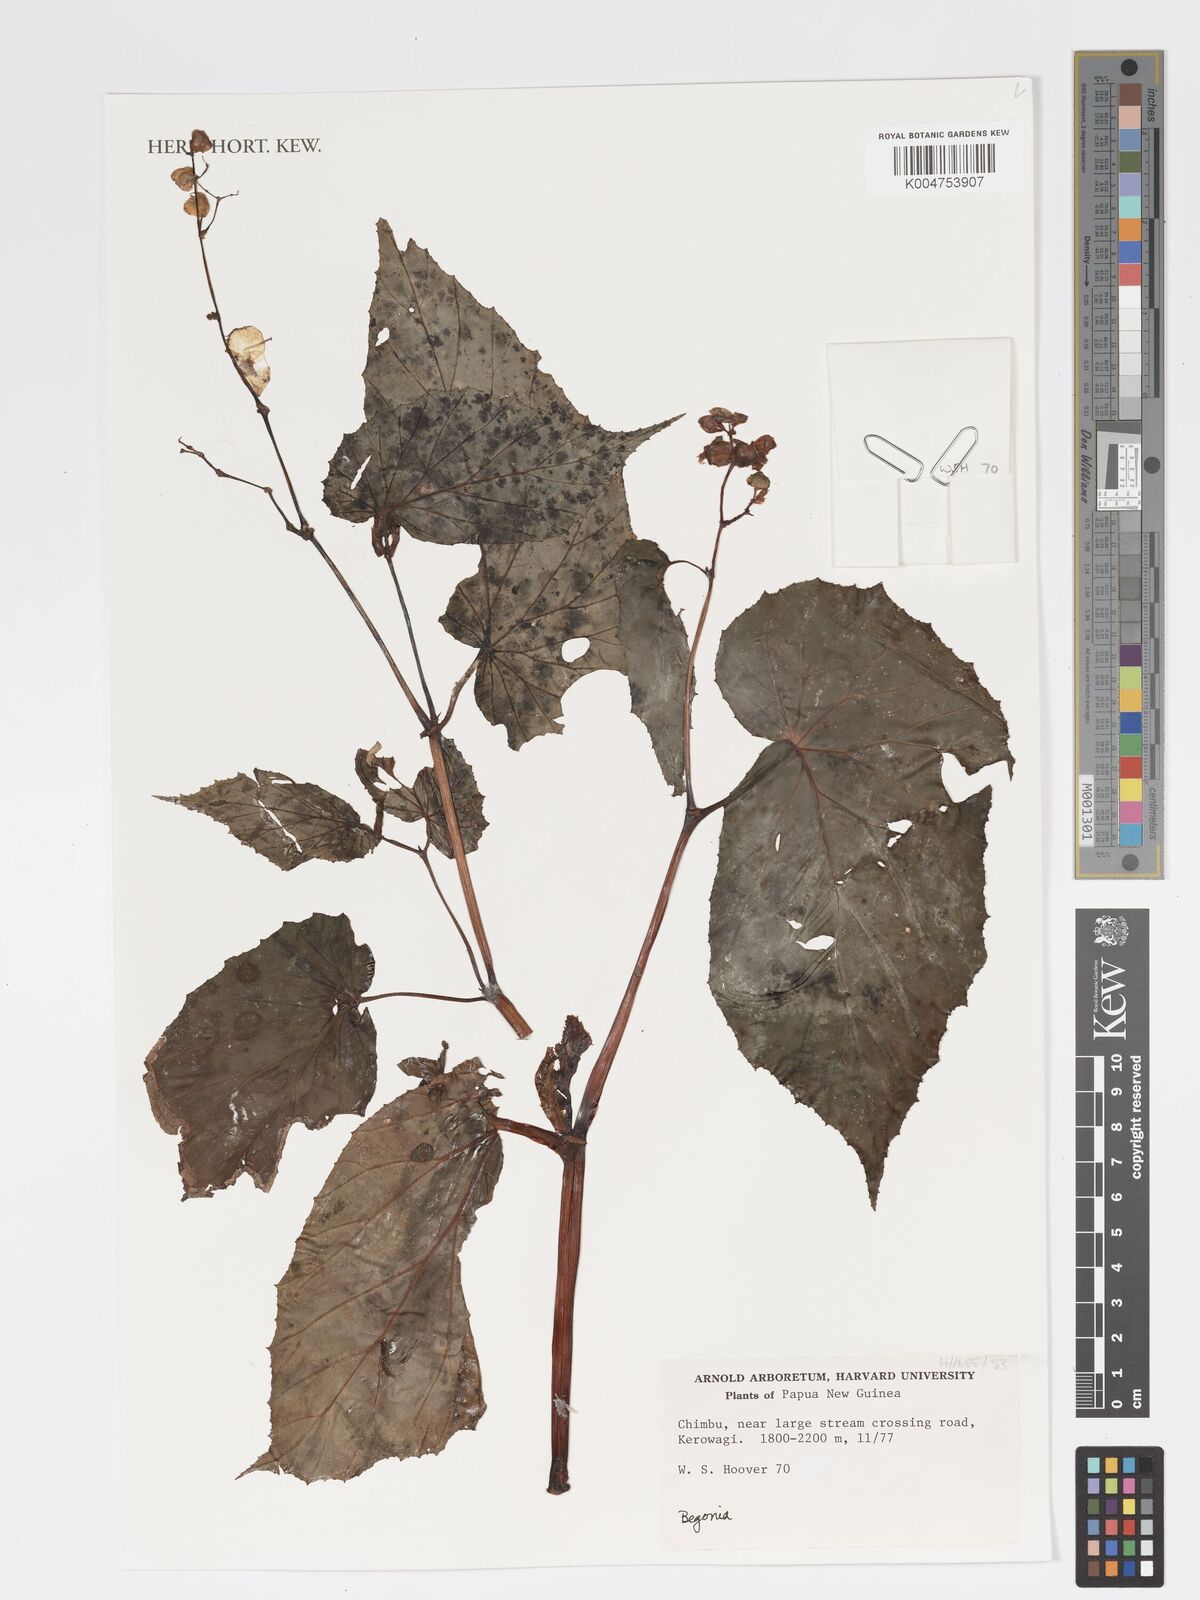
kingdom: Plantae
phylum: Tracheophyta
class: Magnoliopsida
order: Cucurbitales
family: Begoniaceae
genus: Begonia
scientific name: Begonia
